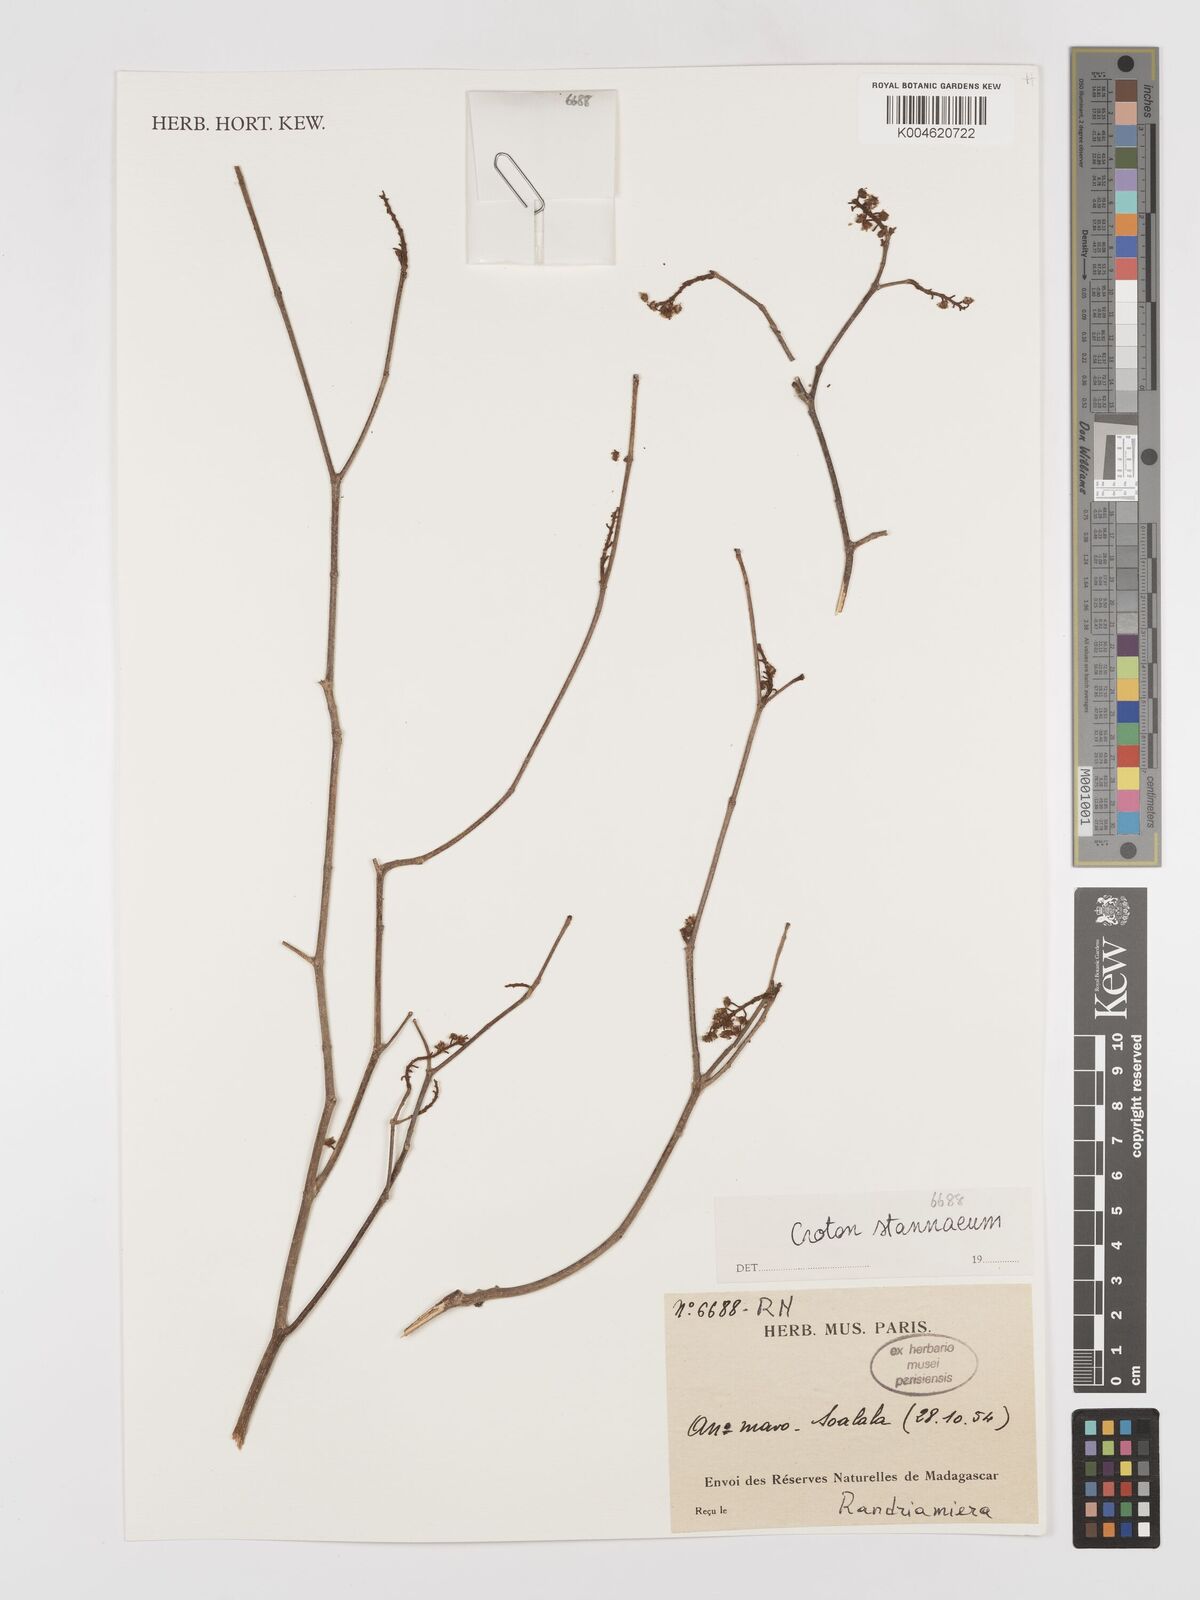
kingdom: Plantae
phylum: Tracheophyta
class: Magnoliopsida
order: Malpighiales
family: Euphorbiaceae
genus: Croton
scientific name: Croton
